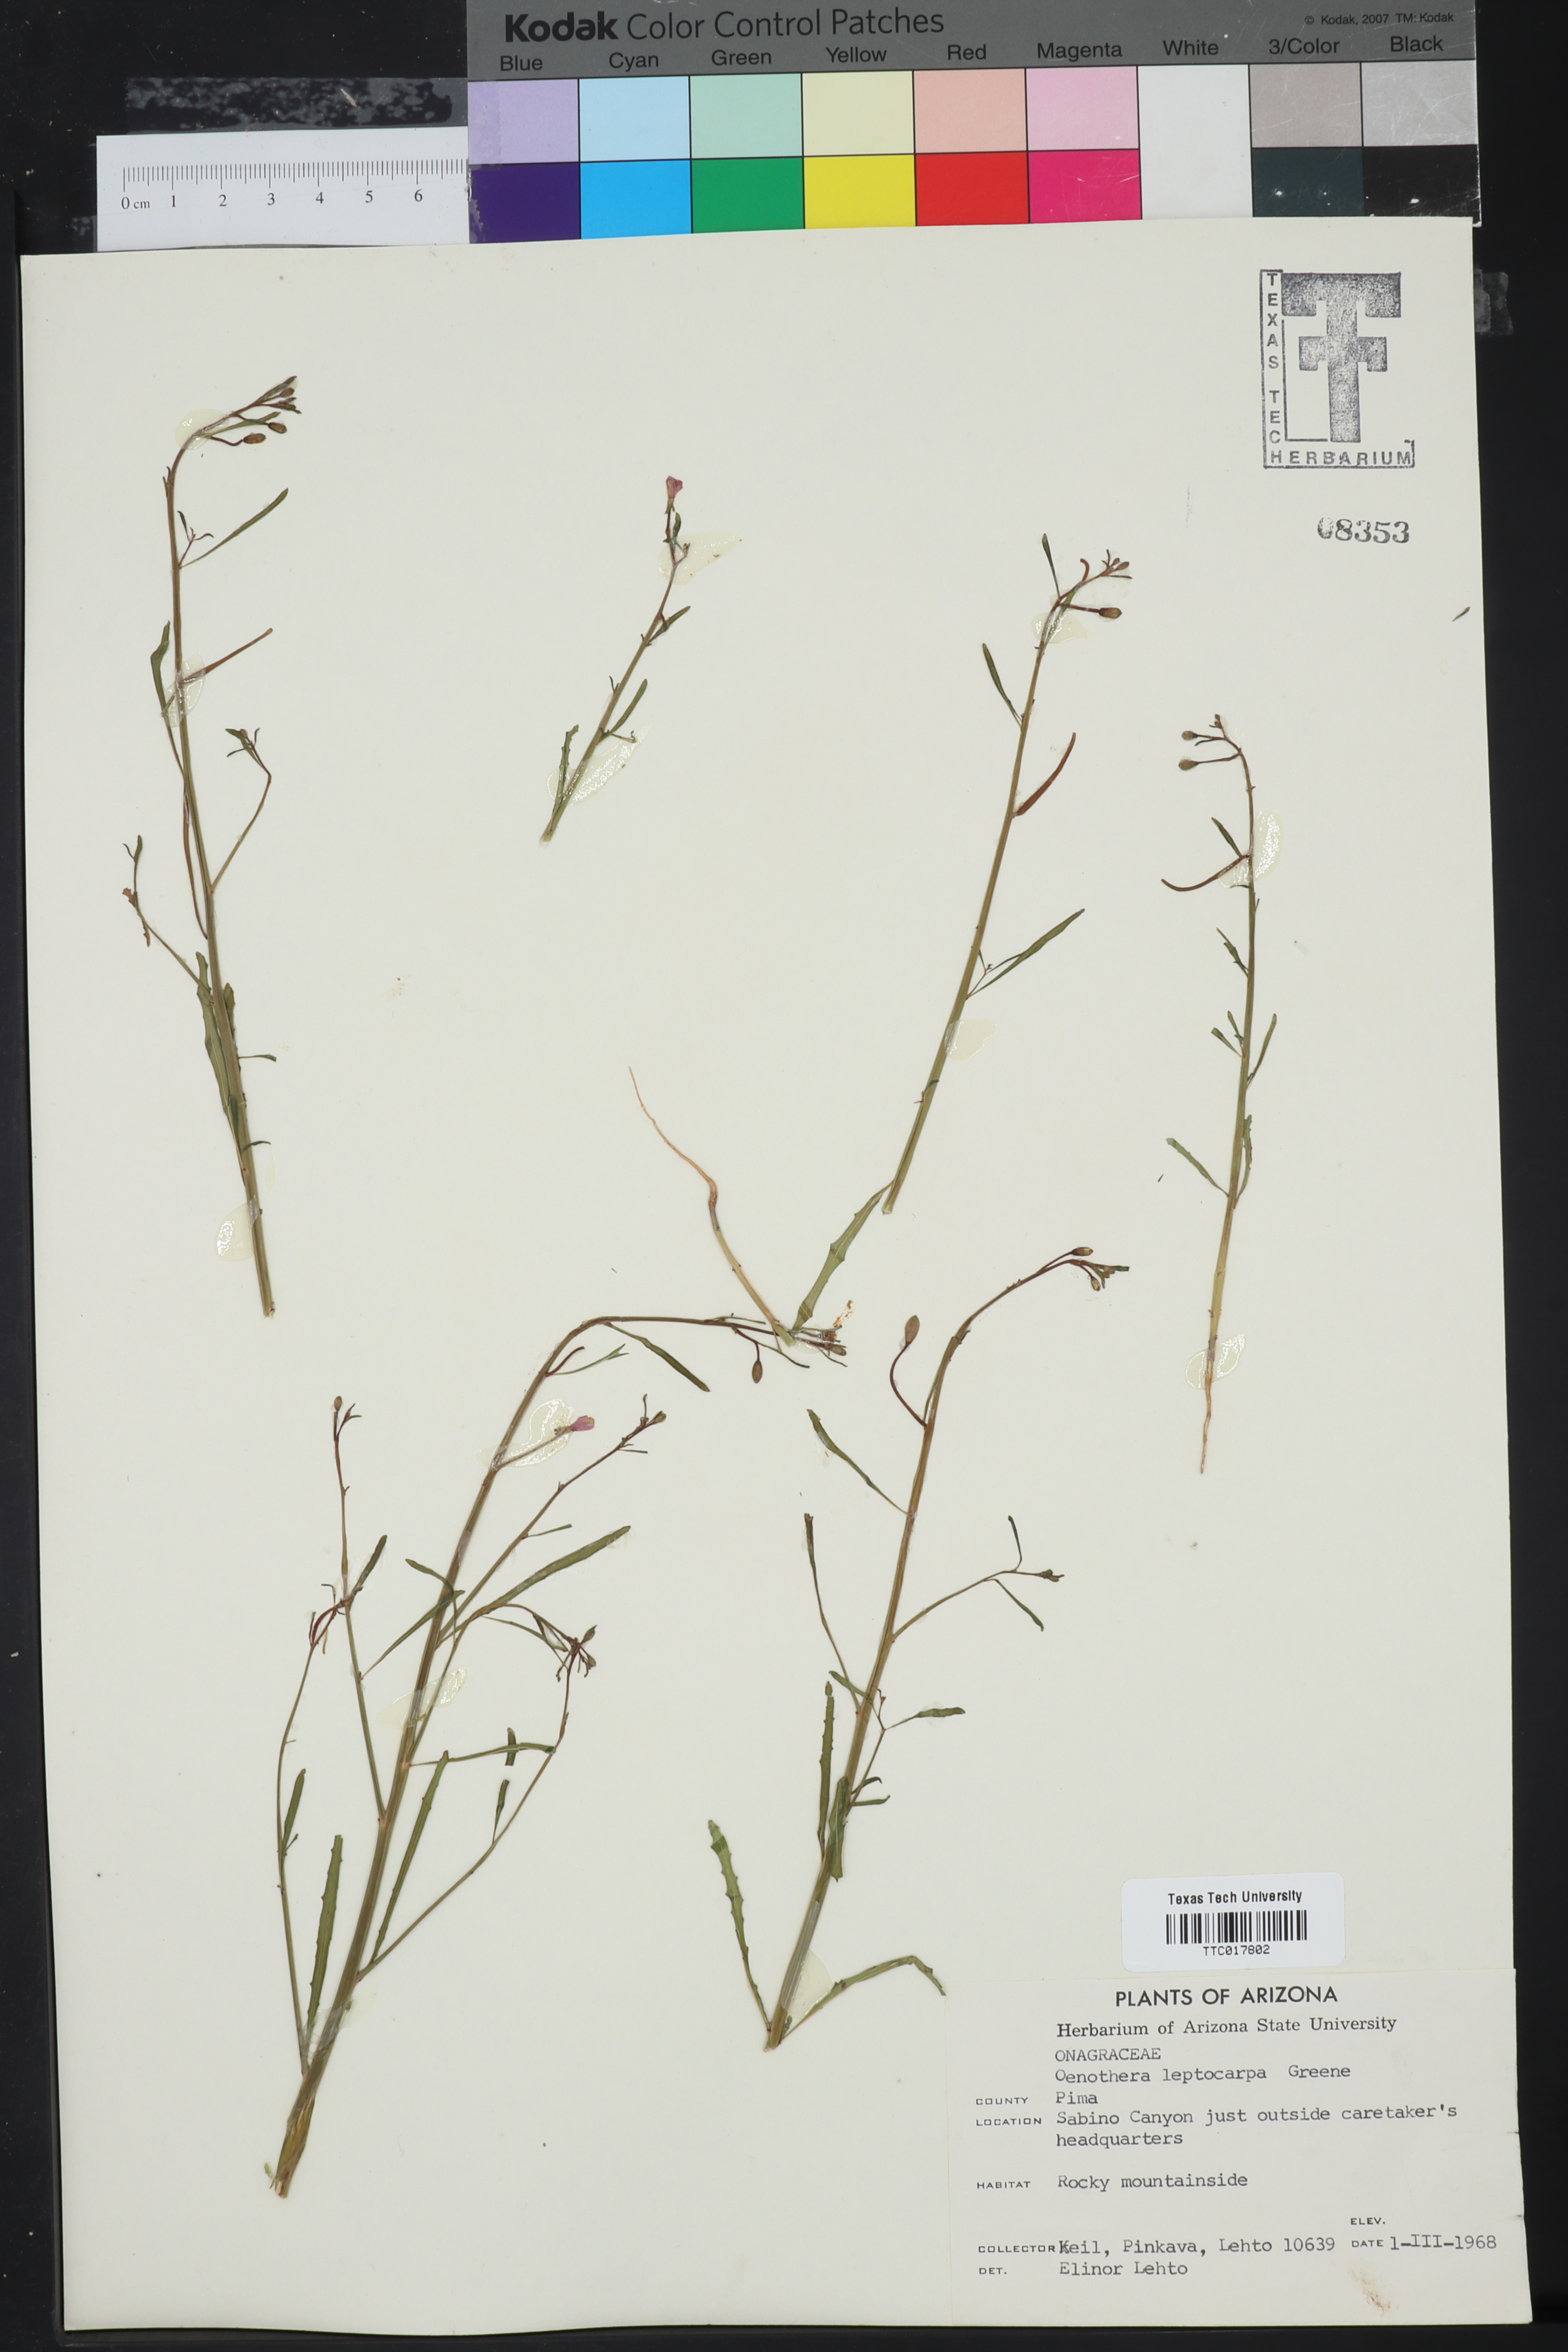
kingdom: Plantae
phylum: Tracheophyta
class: Magnoliopsida
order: Myrtales
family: Onagraceae
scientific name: Onagraceae
